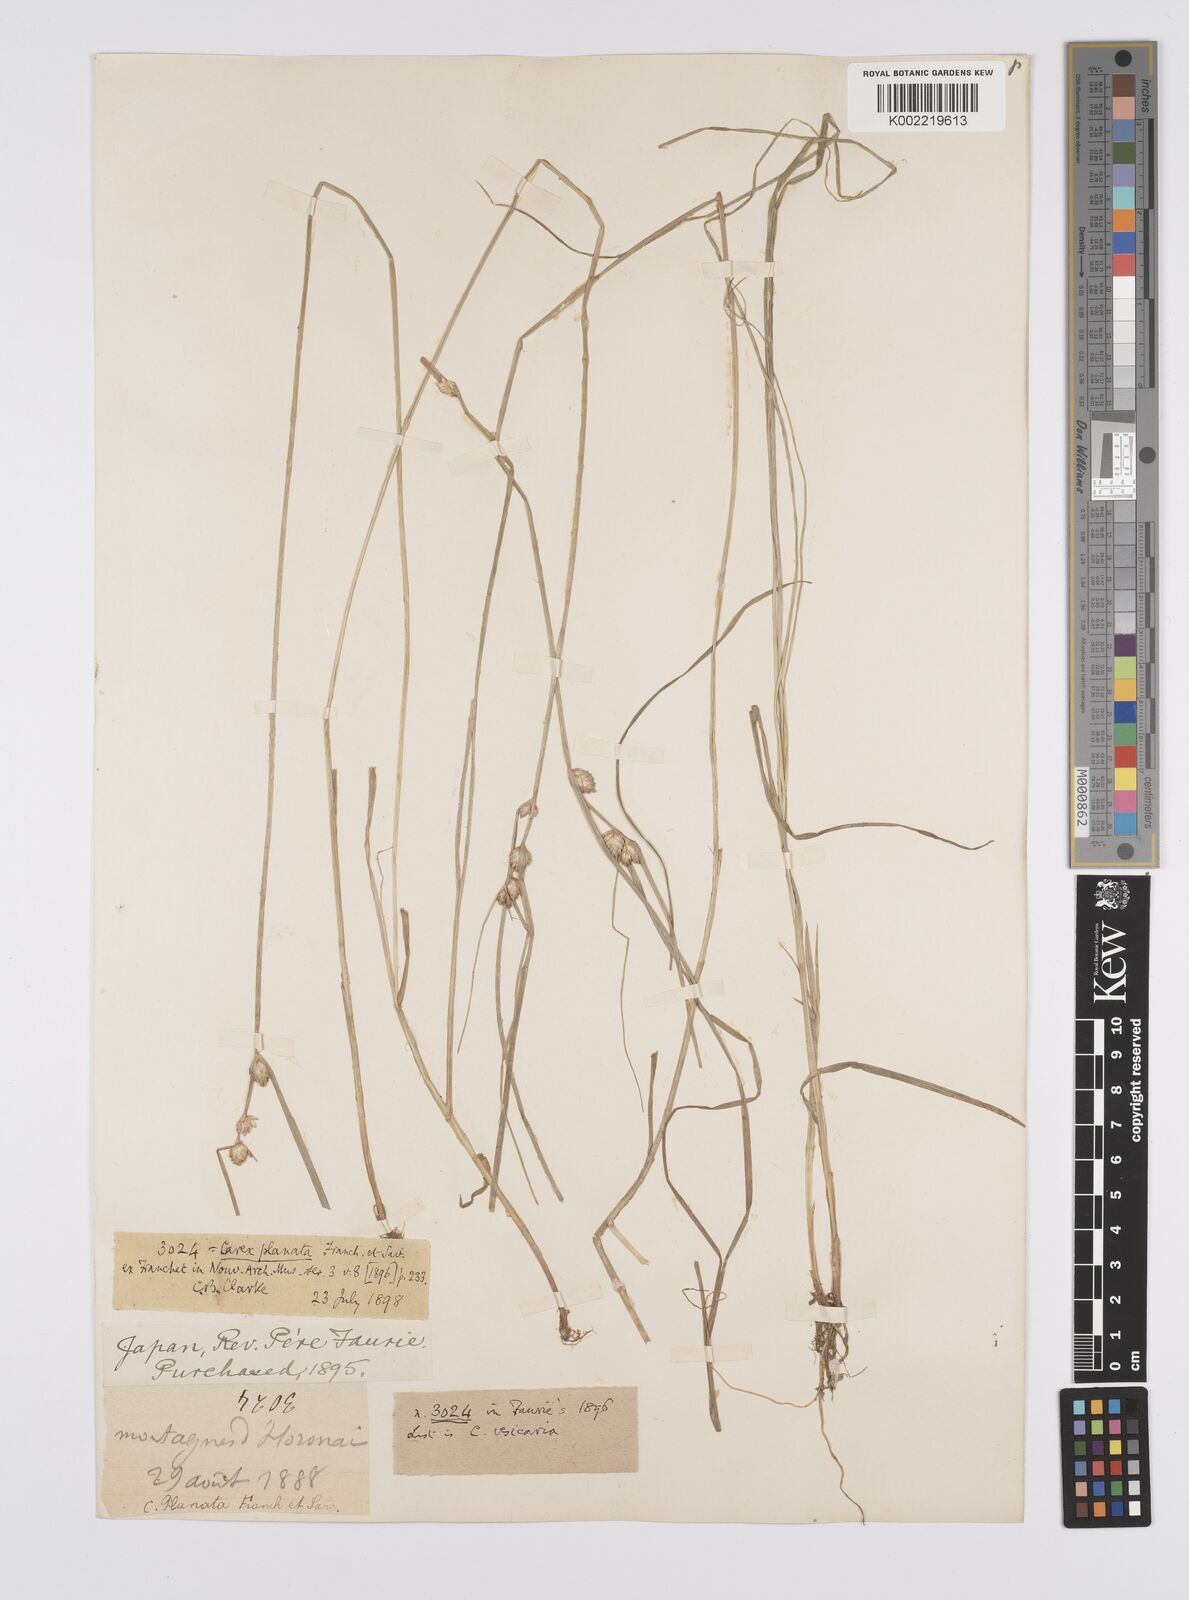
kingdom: Plantae
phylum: Tracheophyta
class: Liliopsida
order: Poales
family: Cyperaceae
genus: Carex
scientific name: Carex planata
